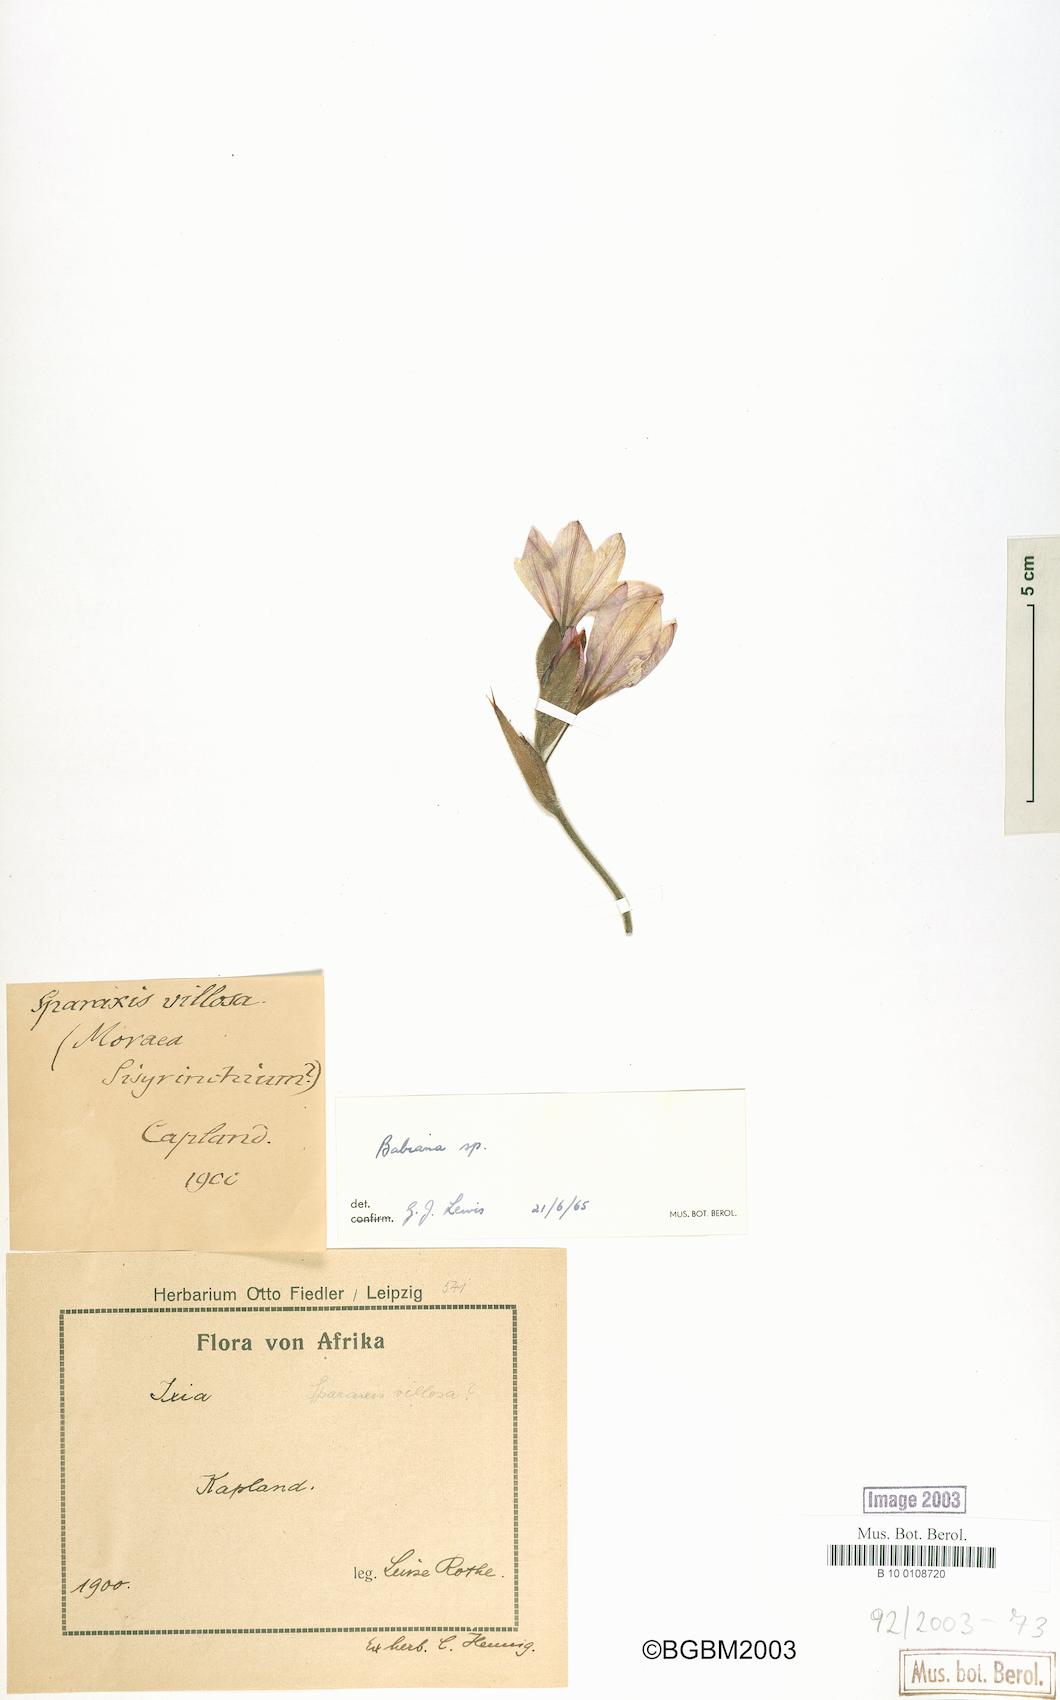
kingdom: Plantae
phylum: Tracheophyta
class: Liliopsida
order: Asparagales
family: Iridaceae
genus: Babiana
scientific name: Babiana
